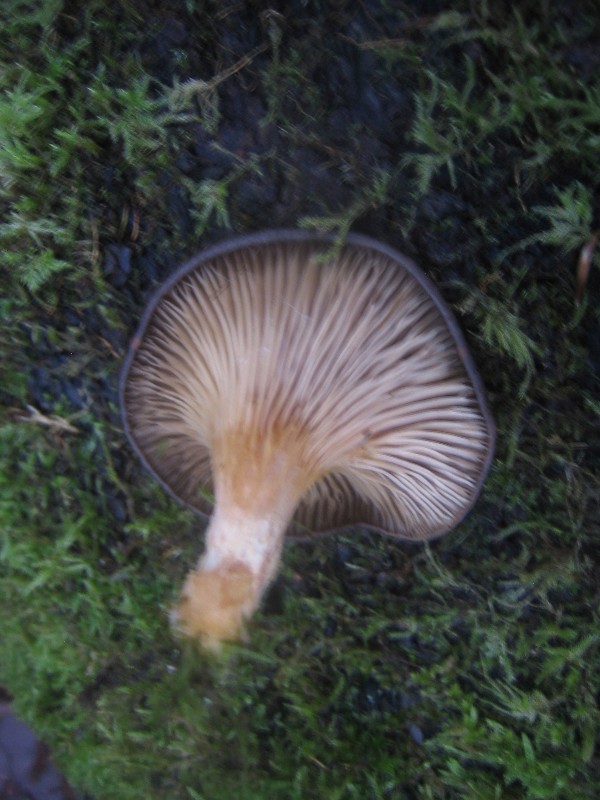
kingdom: Fungi
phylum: Basidiomycota
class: Agaricomycetes
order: Agaricales
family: Pleurotaceae
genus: Pleurotus
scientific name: Pleurotus ostreatus
